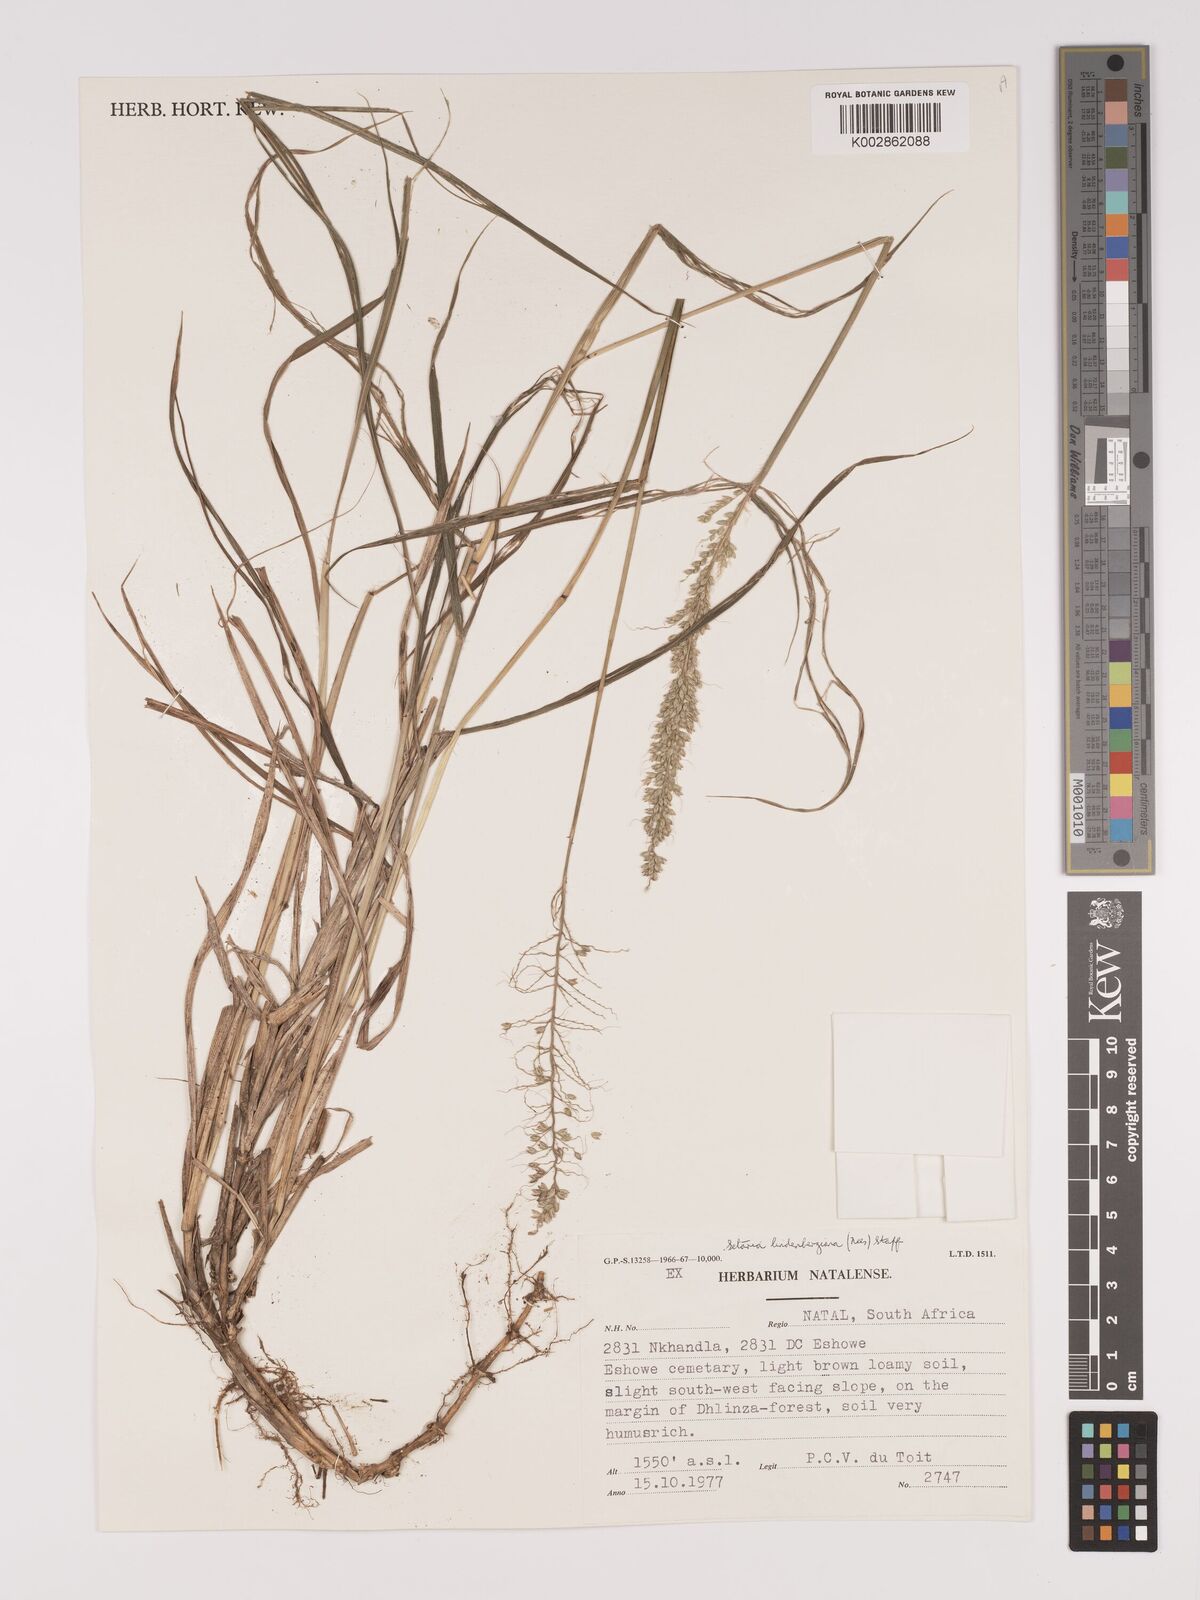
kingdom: Plantae
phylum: Tracheophyta
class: Liliopsida
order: Poales
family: Poaceae
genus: Setaria
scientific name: Setaria lindenbergiana
